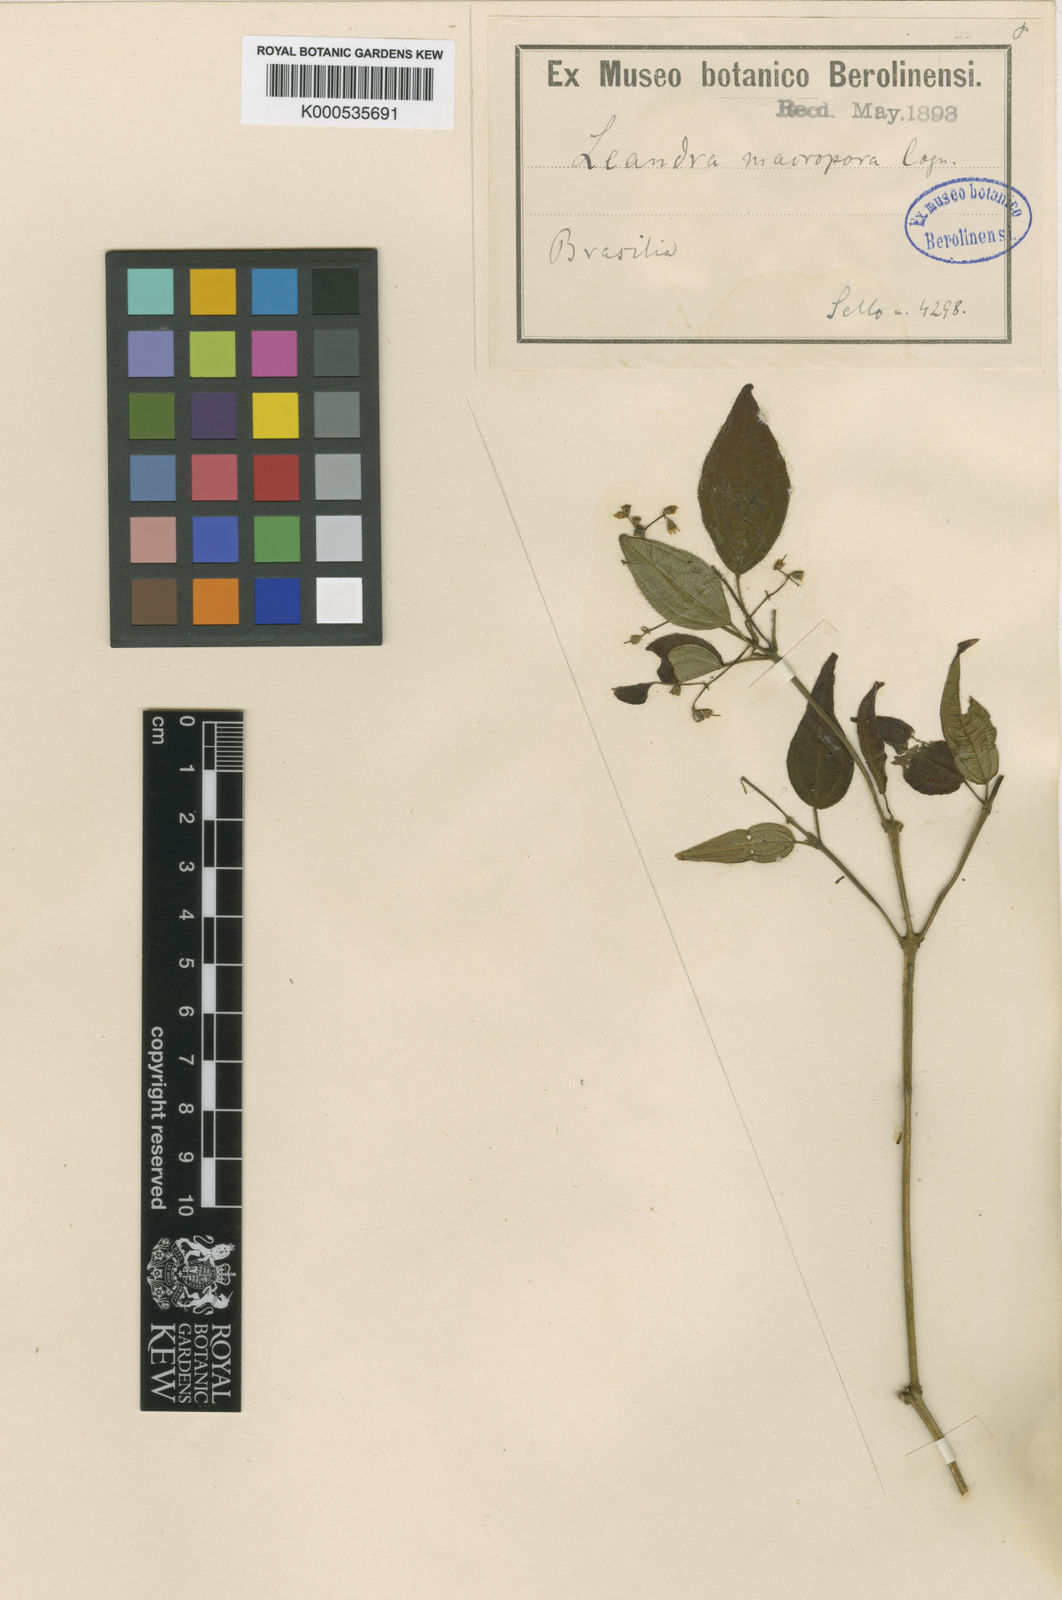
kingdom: Plantae
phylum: Tracheophyta
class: Magnoliopsida
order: Myrtales
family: Melastomataceae
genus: Miconia
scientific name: Miconia macropora
